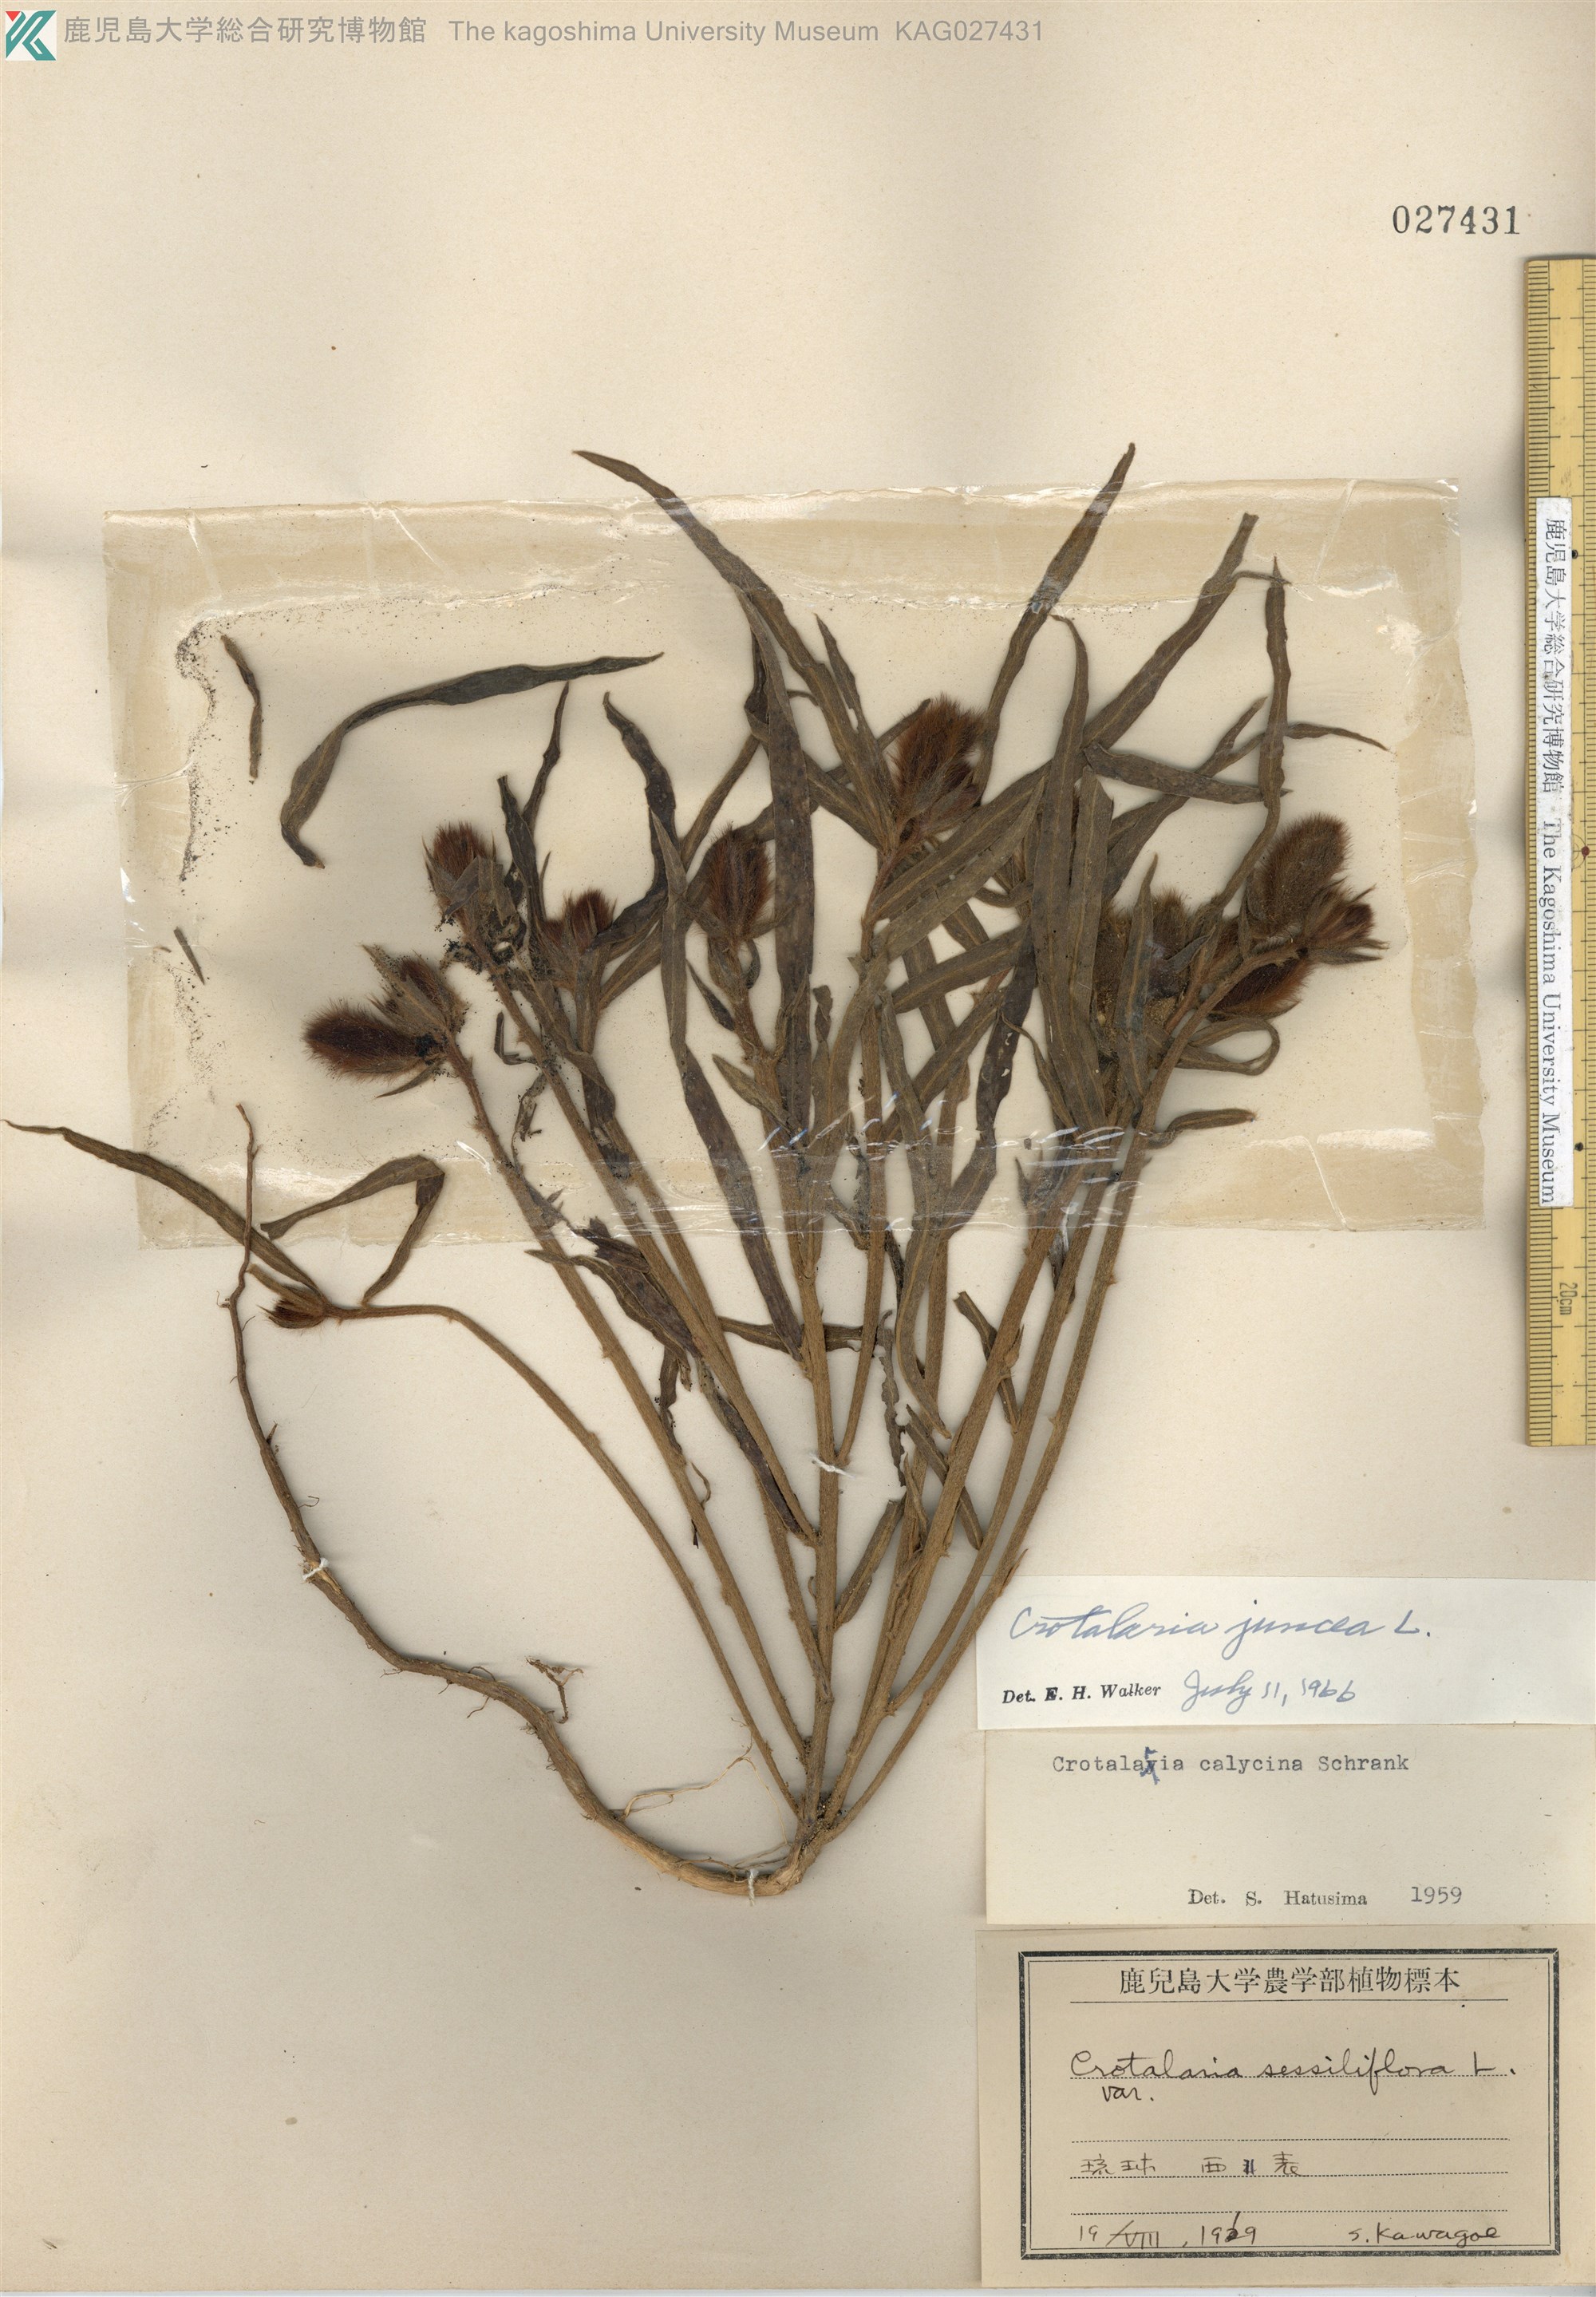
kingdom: Plantae
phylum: Tracheophyta
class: Magnoliopsida
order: Fabales
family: Fabaceae
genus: Crotalaria
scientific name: Crotalaria juncea
